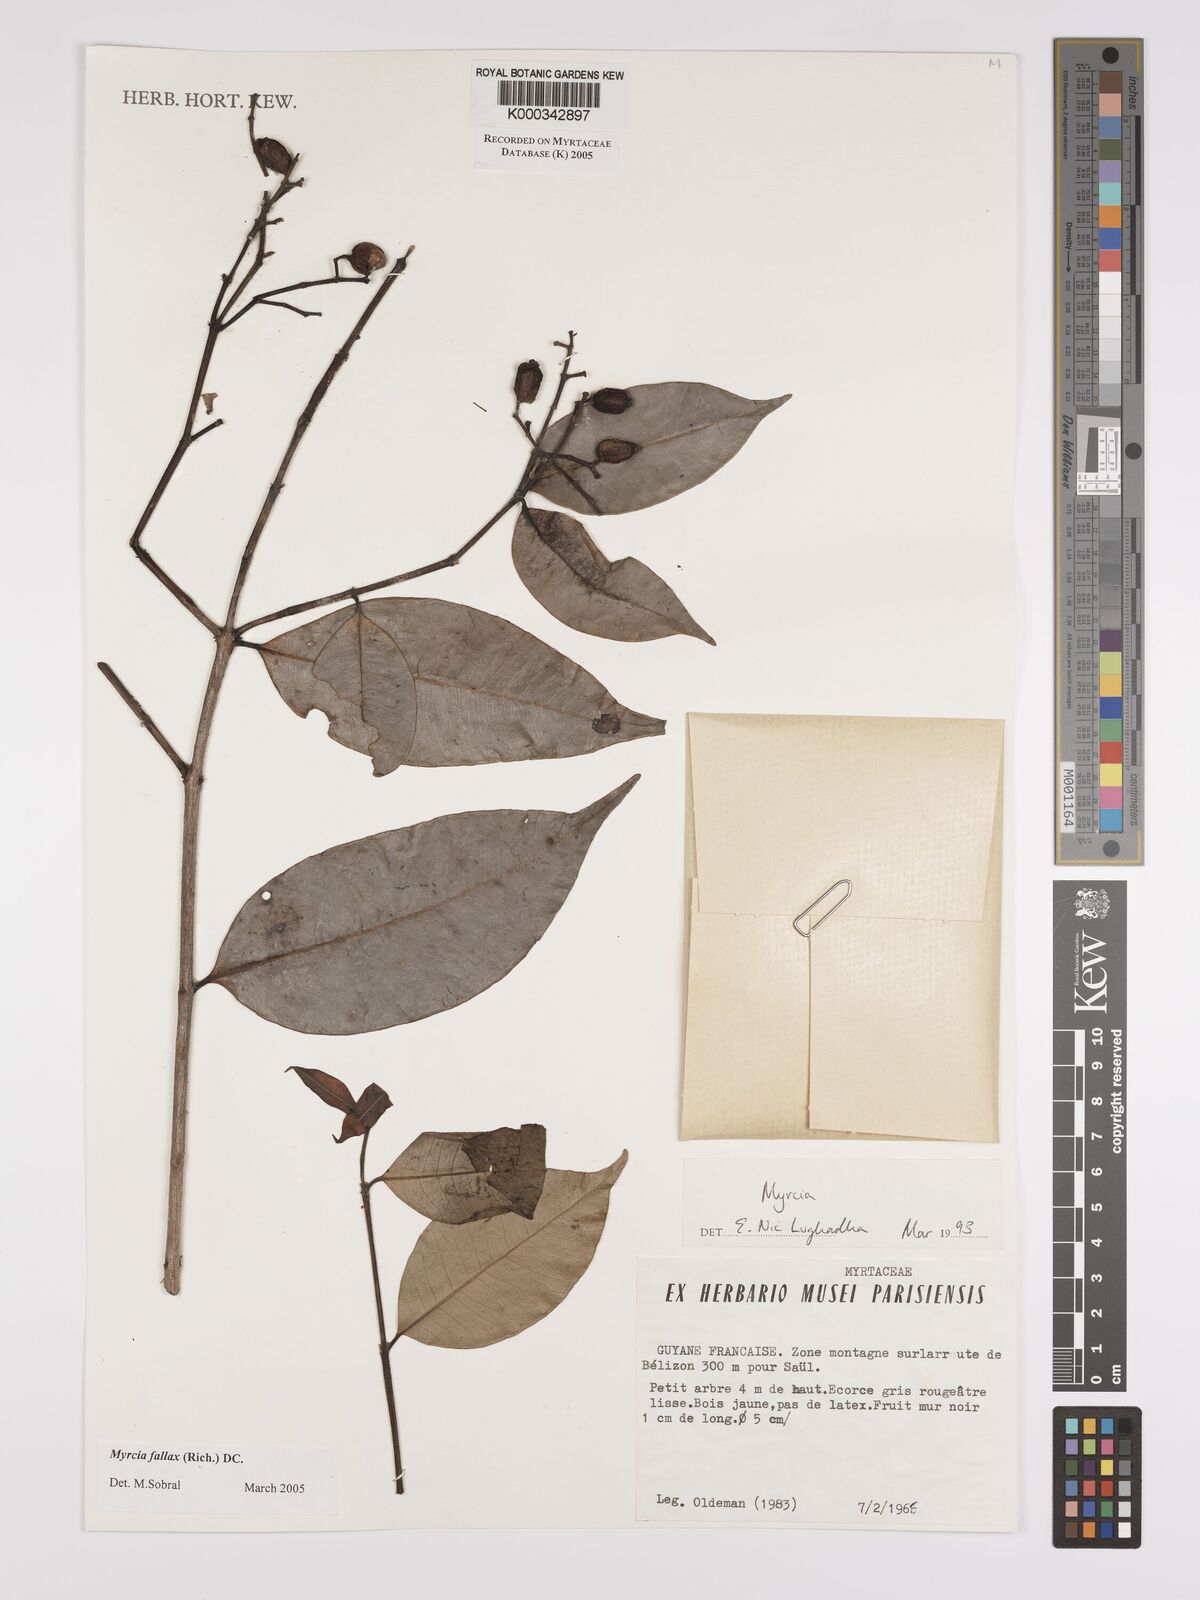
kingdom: Plantae
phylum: Tracheophyta
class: Magnoliopsida
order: Myrtales
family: Myrtaceae
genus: Myrcia
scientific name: Myrcia splendens
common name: Surinam cherry
